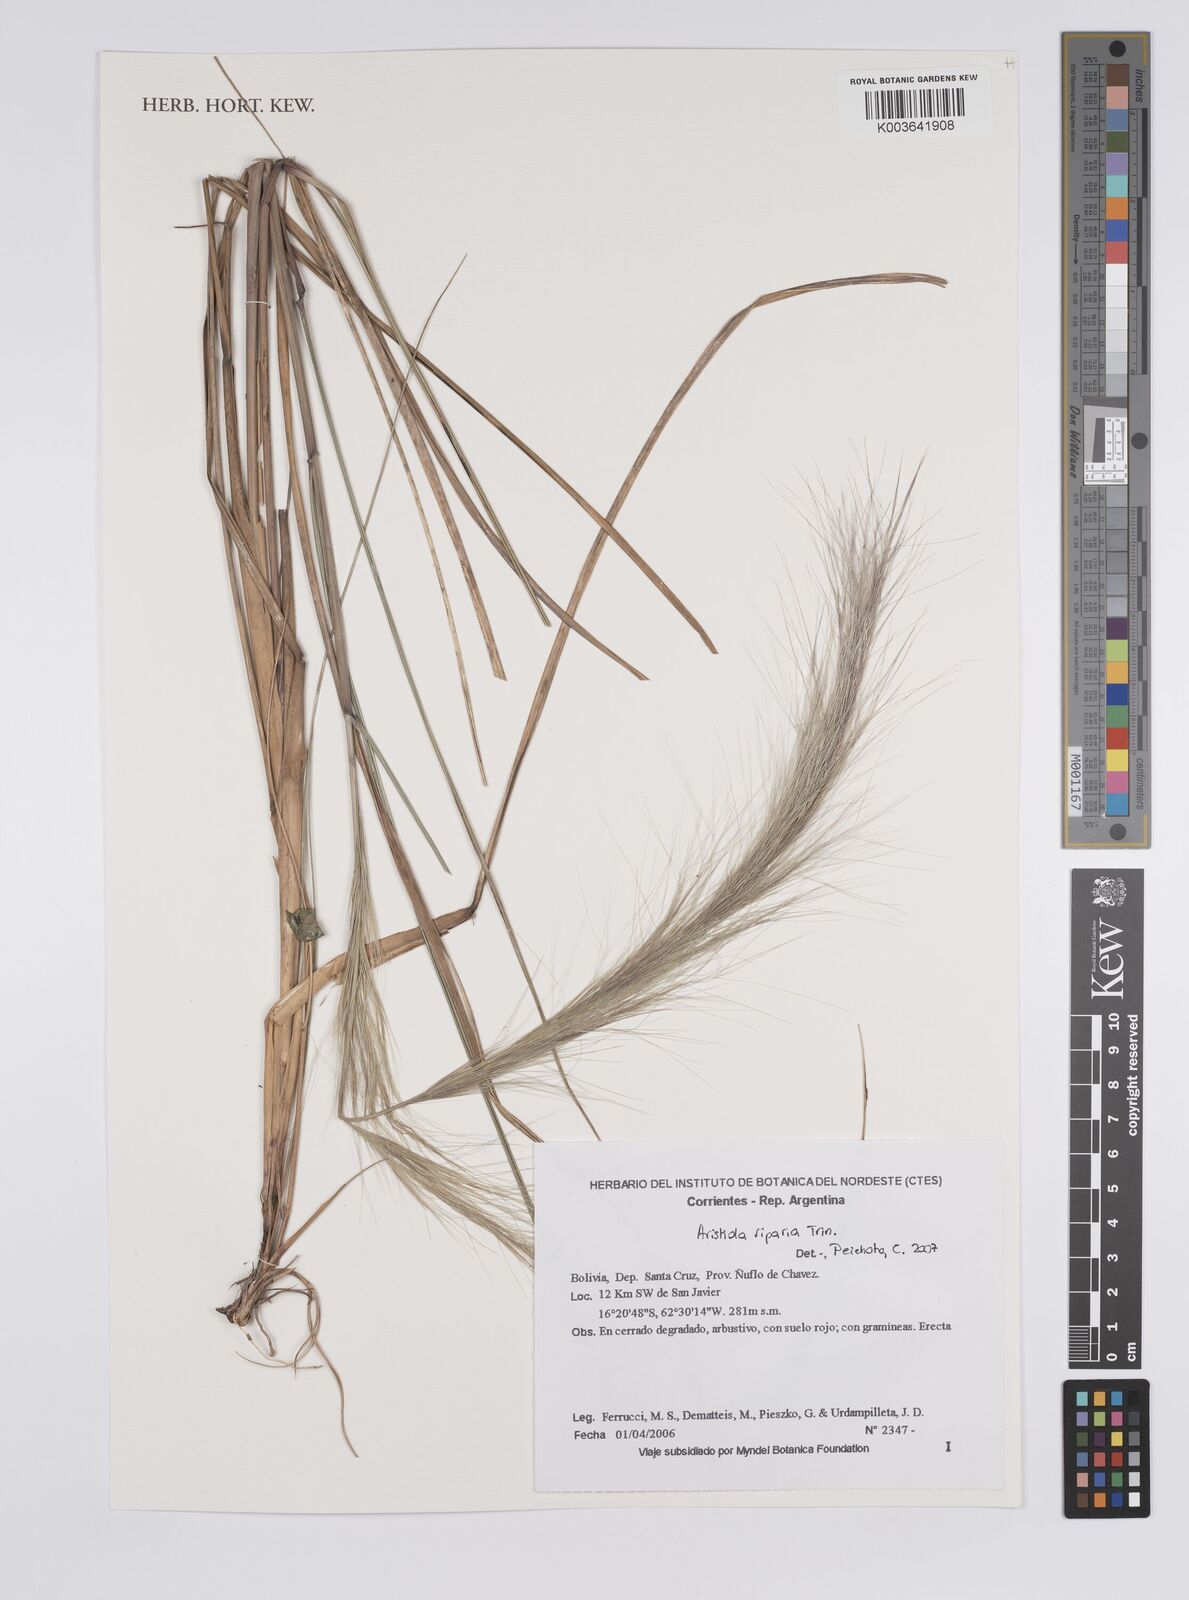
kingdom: Plantae
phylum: Tracheophyta
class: Liliopsida
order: Poales
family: Poaceae
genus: Aristida
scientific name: Aristida riparia
